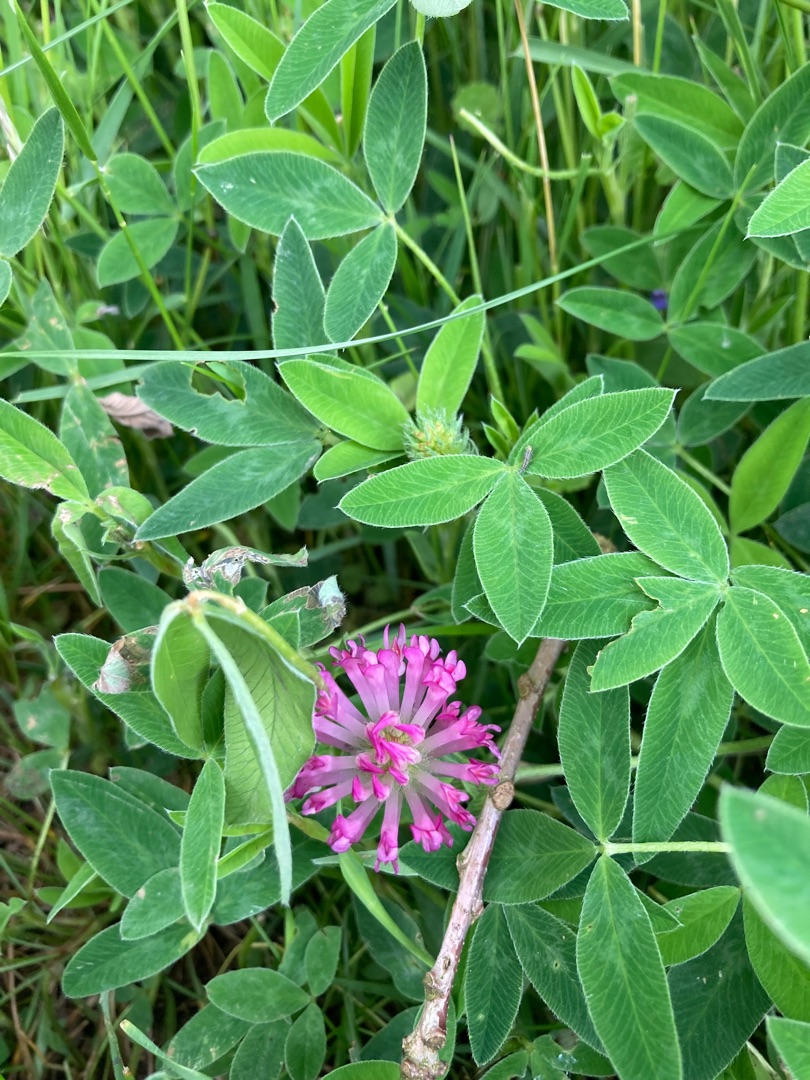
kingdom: Plantae
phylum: Tracheophyta
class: Magnoliopsida
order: Fabales
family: Fabaceae
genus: Trifolium
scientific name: Trifolium medium
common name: Bugtet kløver
